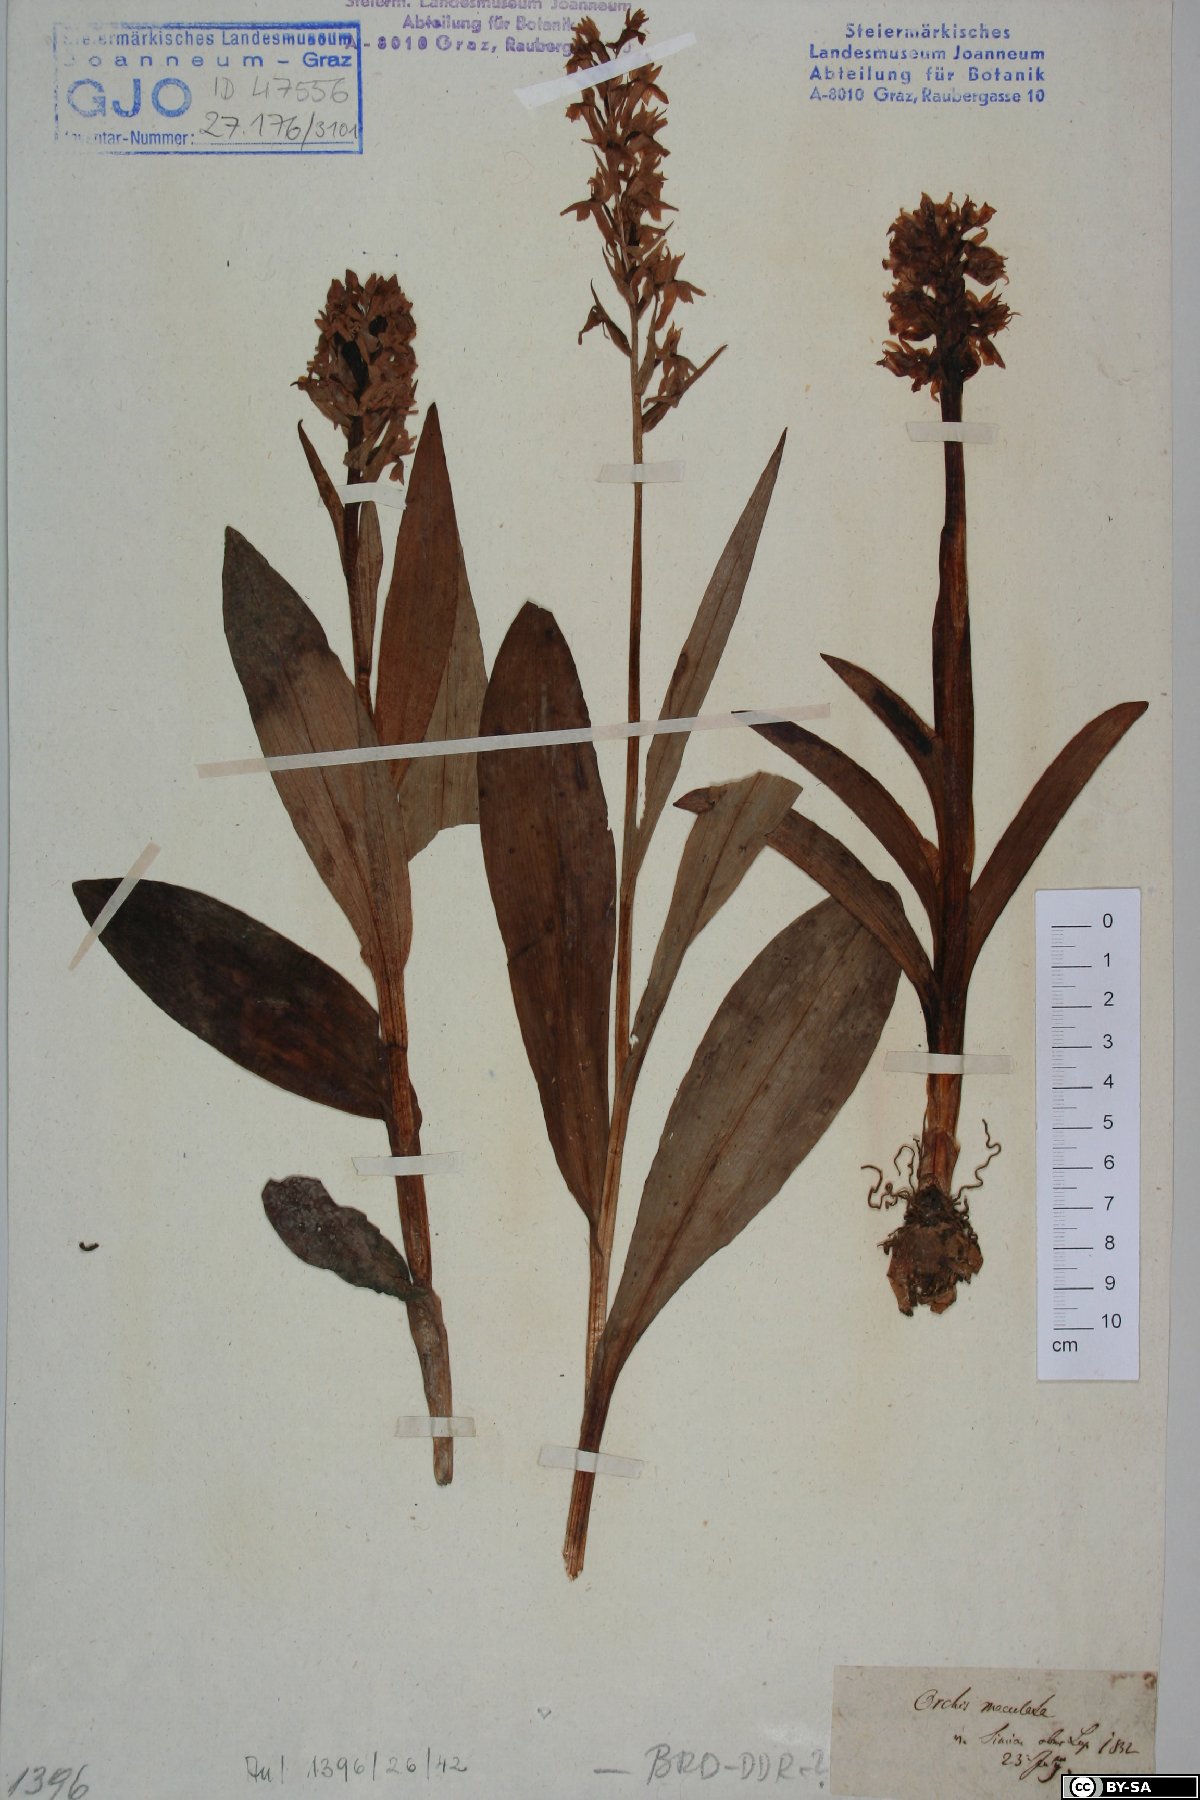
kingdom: Plantae
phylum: Tracheophyta
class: Liliopsida
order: Asparagales
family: Orchidaceae
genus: Dactylorhiza
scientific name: Dactylorhiza maculata
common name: Heath spotted-orchid
